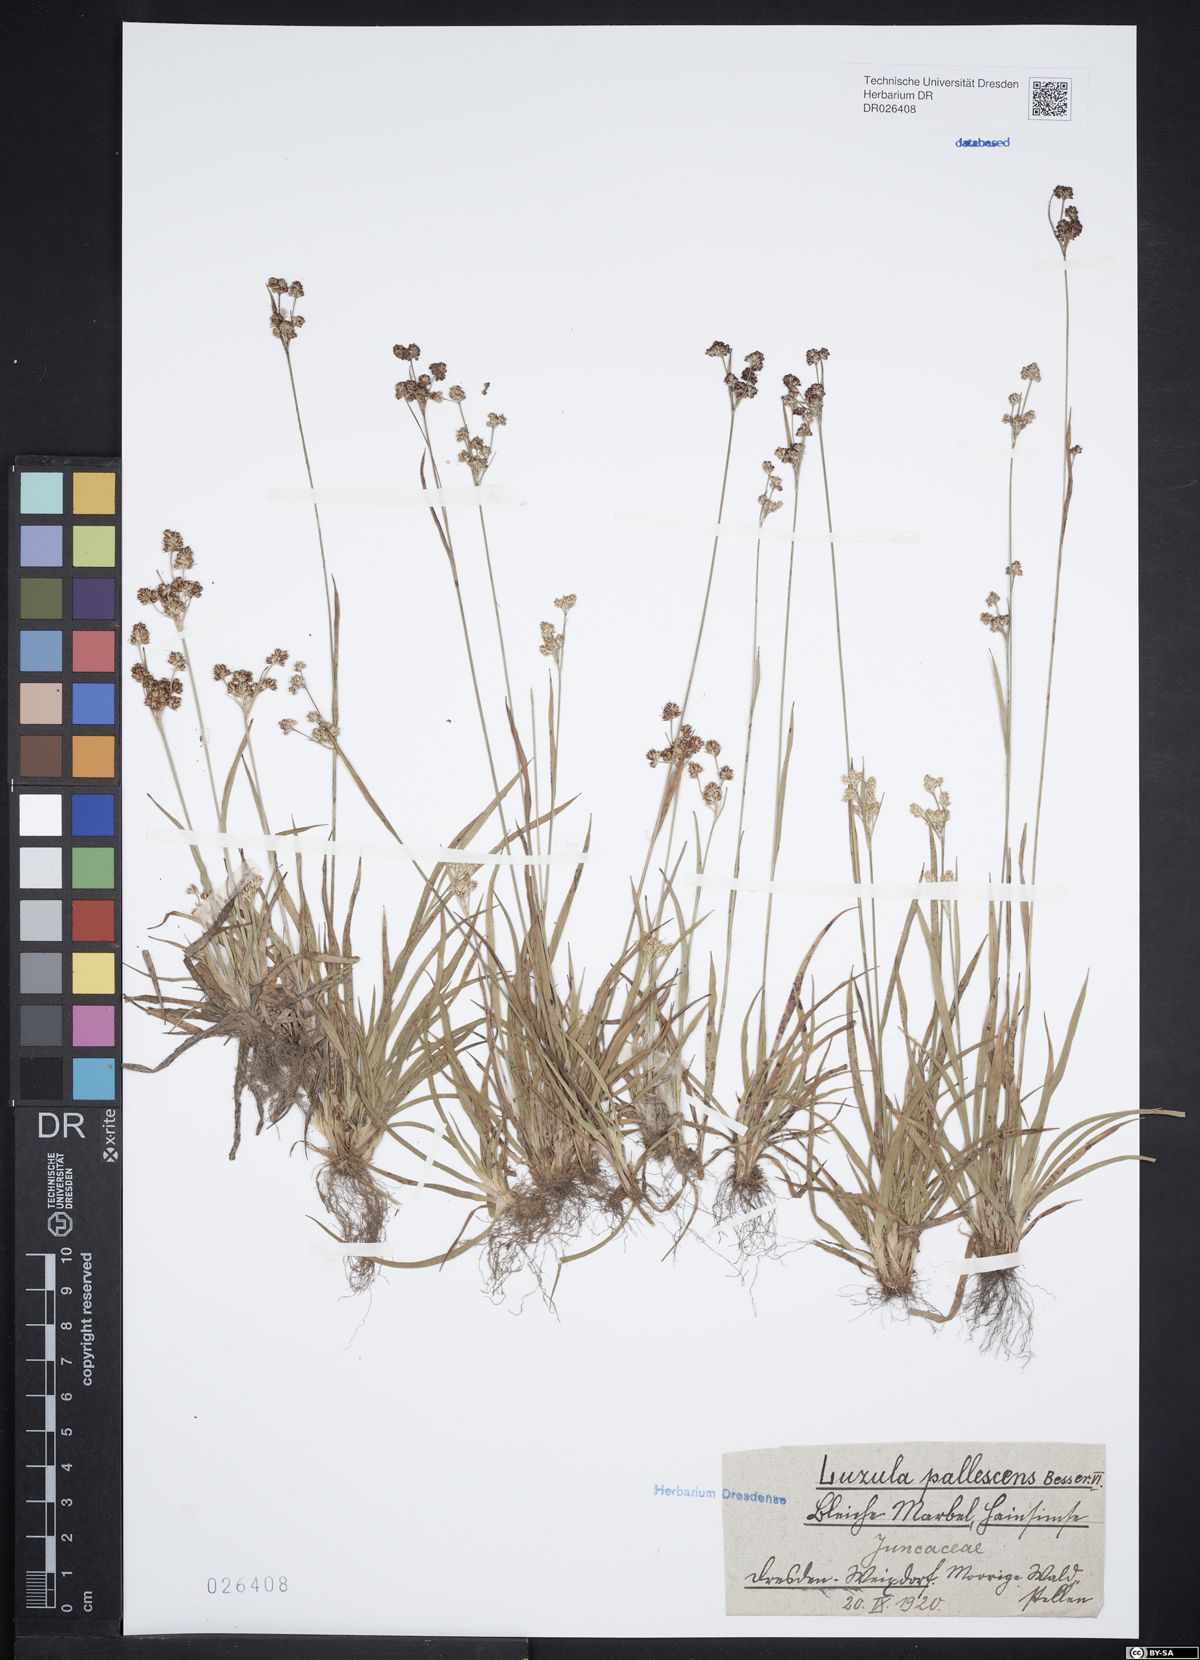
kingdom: Plantae
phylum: Tracheophyta
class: Liliopsida
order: Poales
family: Juncaceae
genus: Luzula
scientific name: Luzula pallescens
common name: Fen wood-rush
